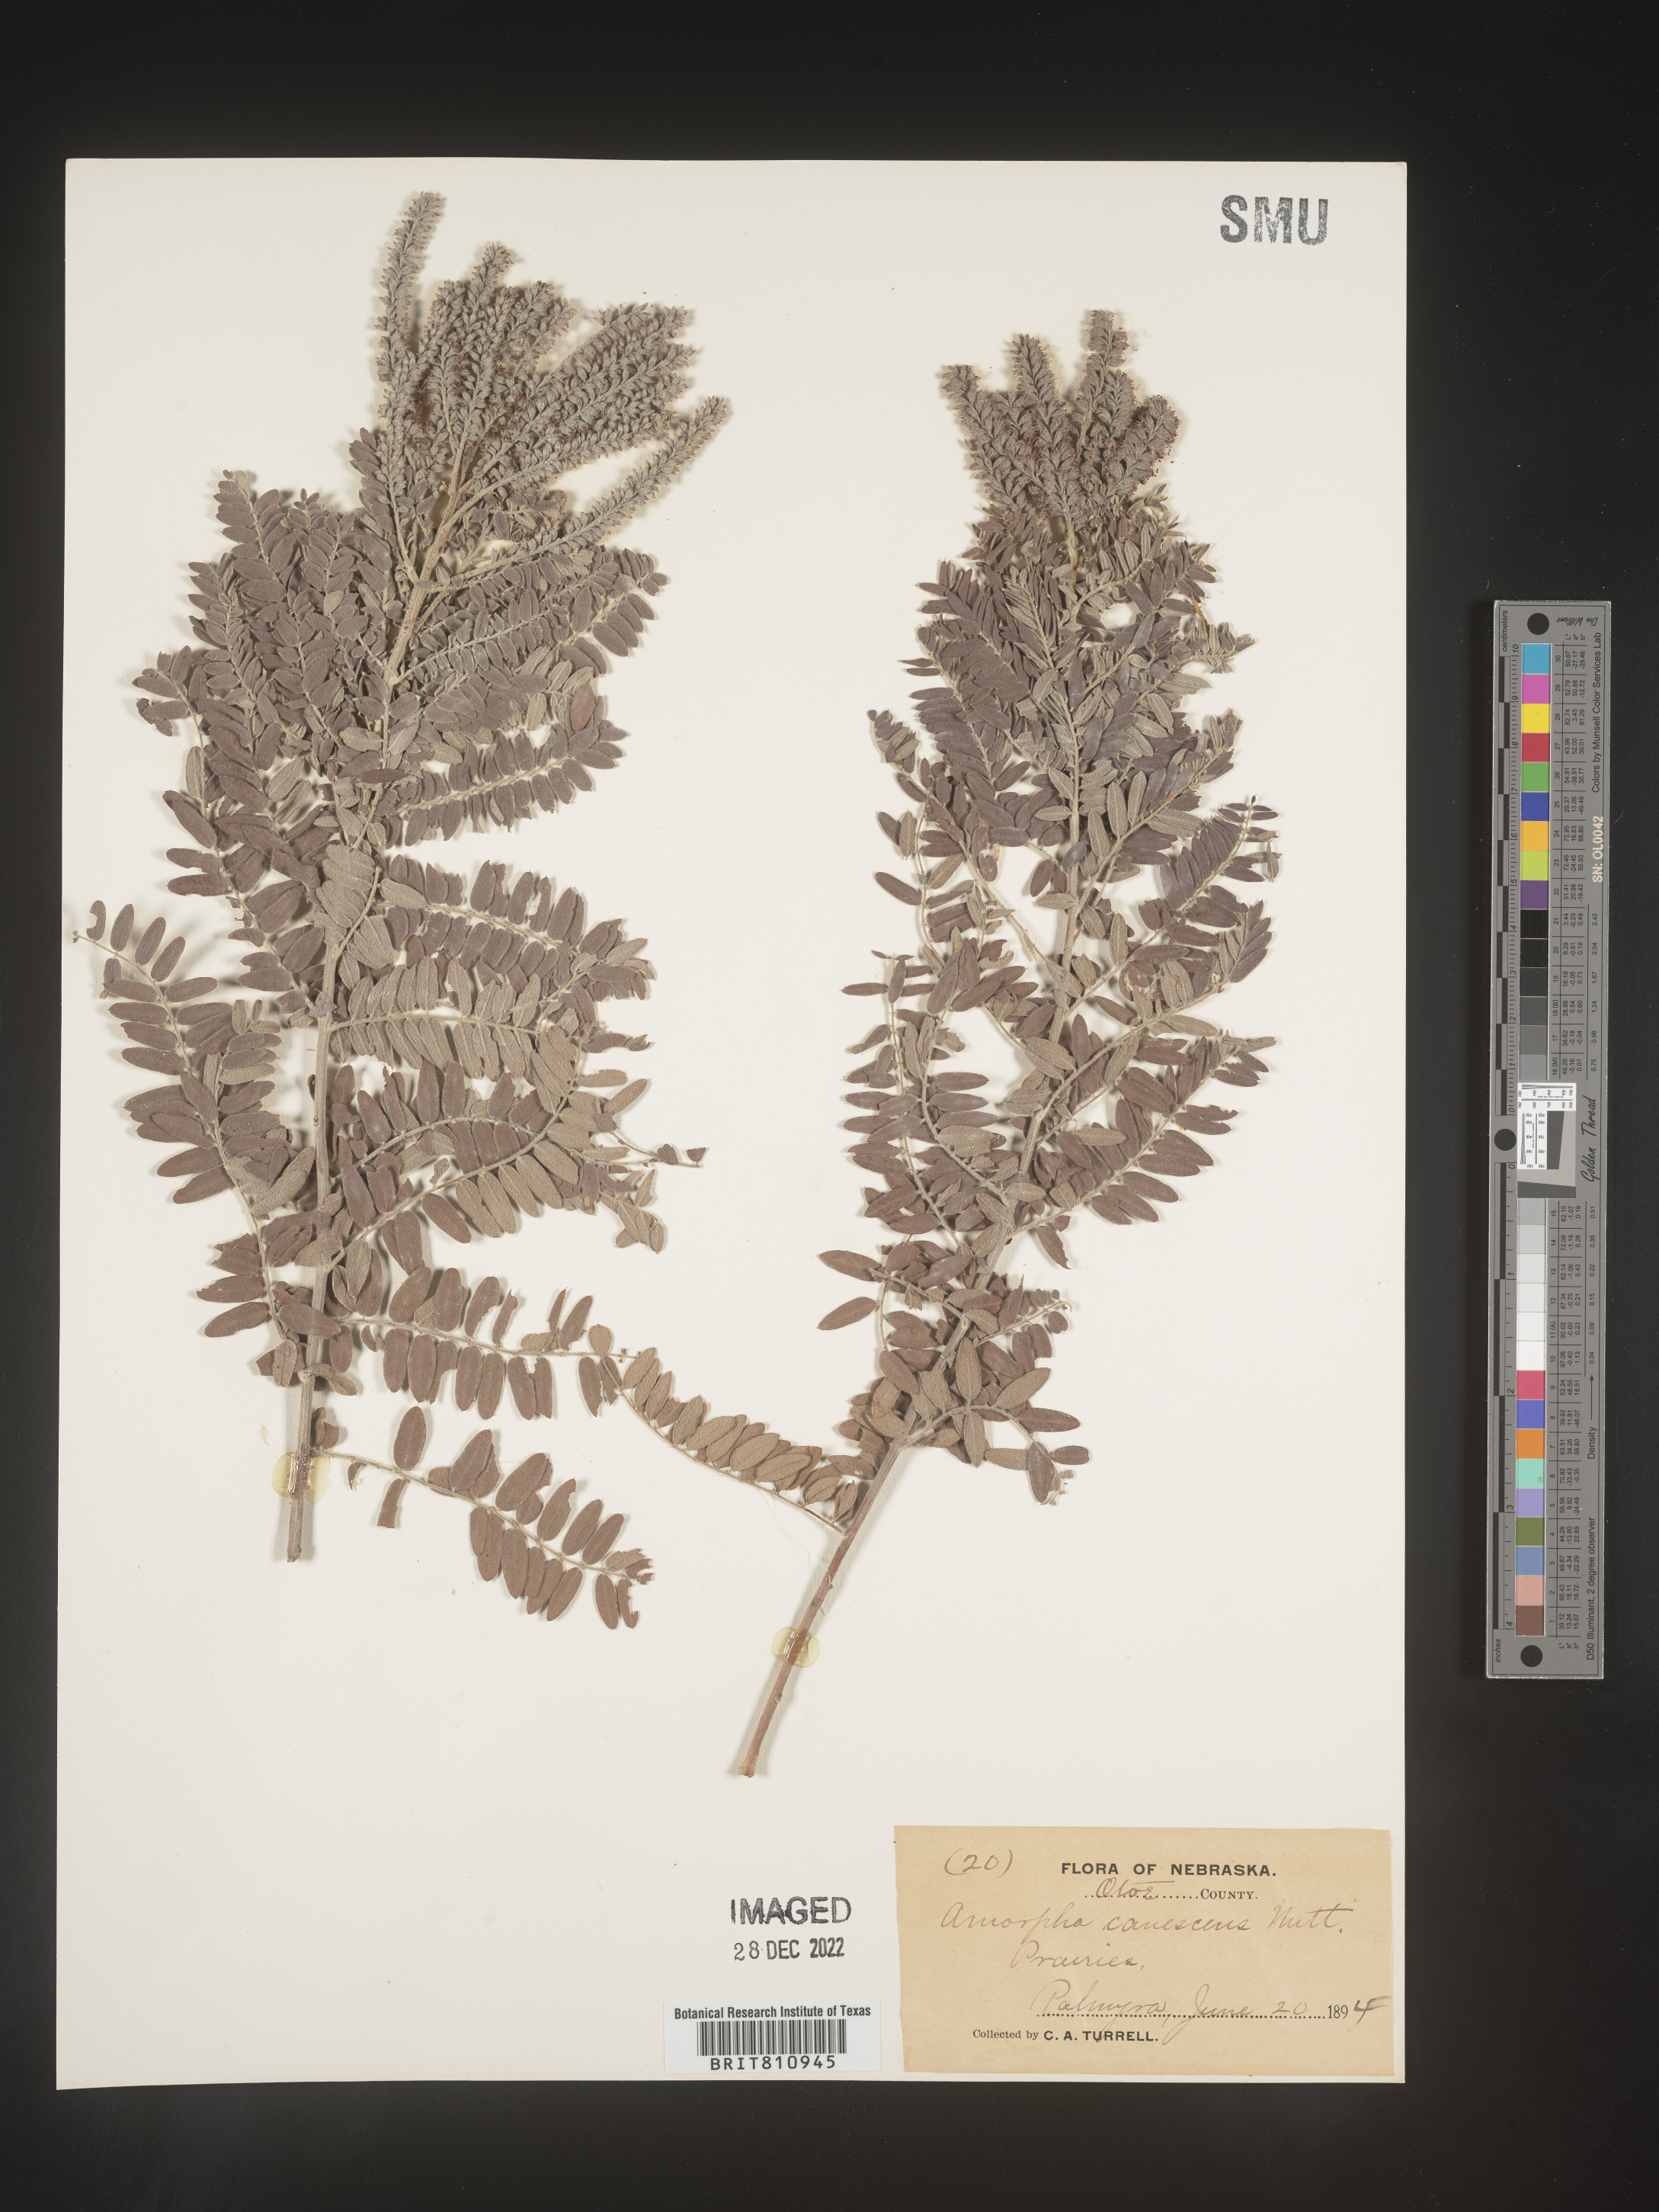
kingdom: Plantae
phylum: Tracheophyta
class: Magnoliopsida
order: Fabales
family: Fabaceae
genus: Amorpha
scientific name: Amorpha canescens
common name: Leadplant
